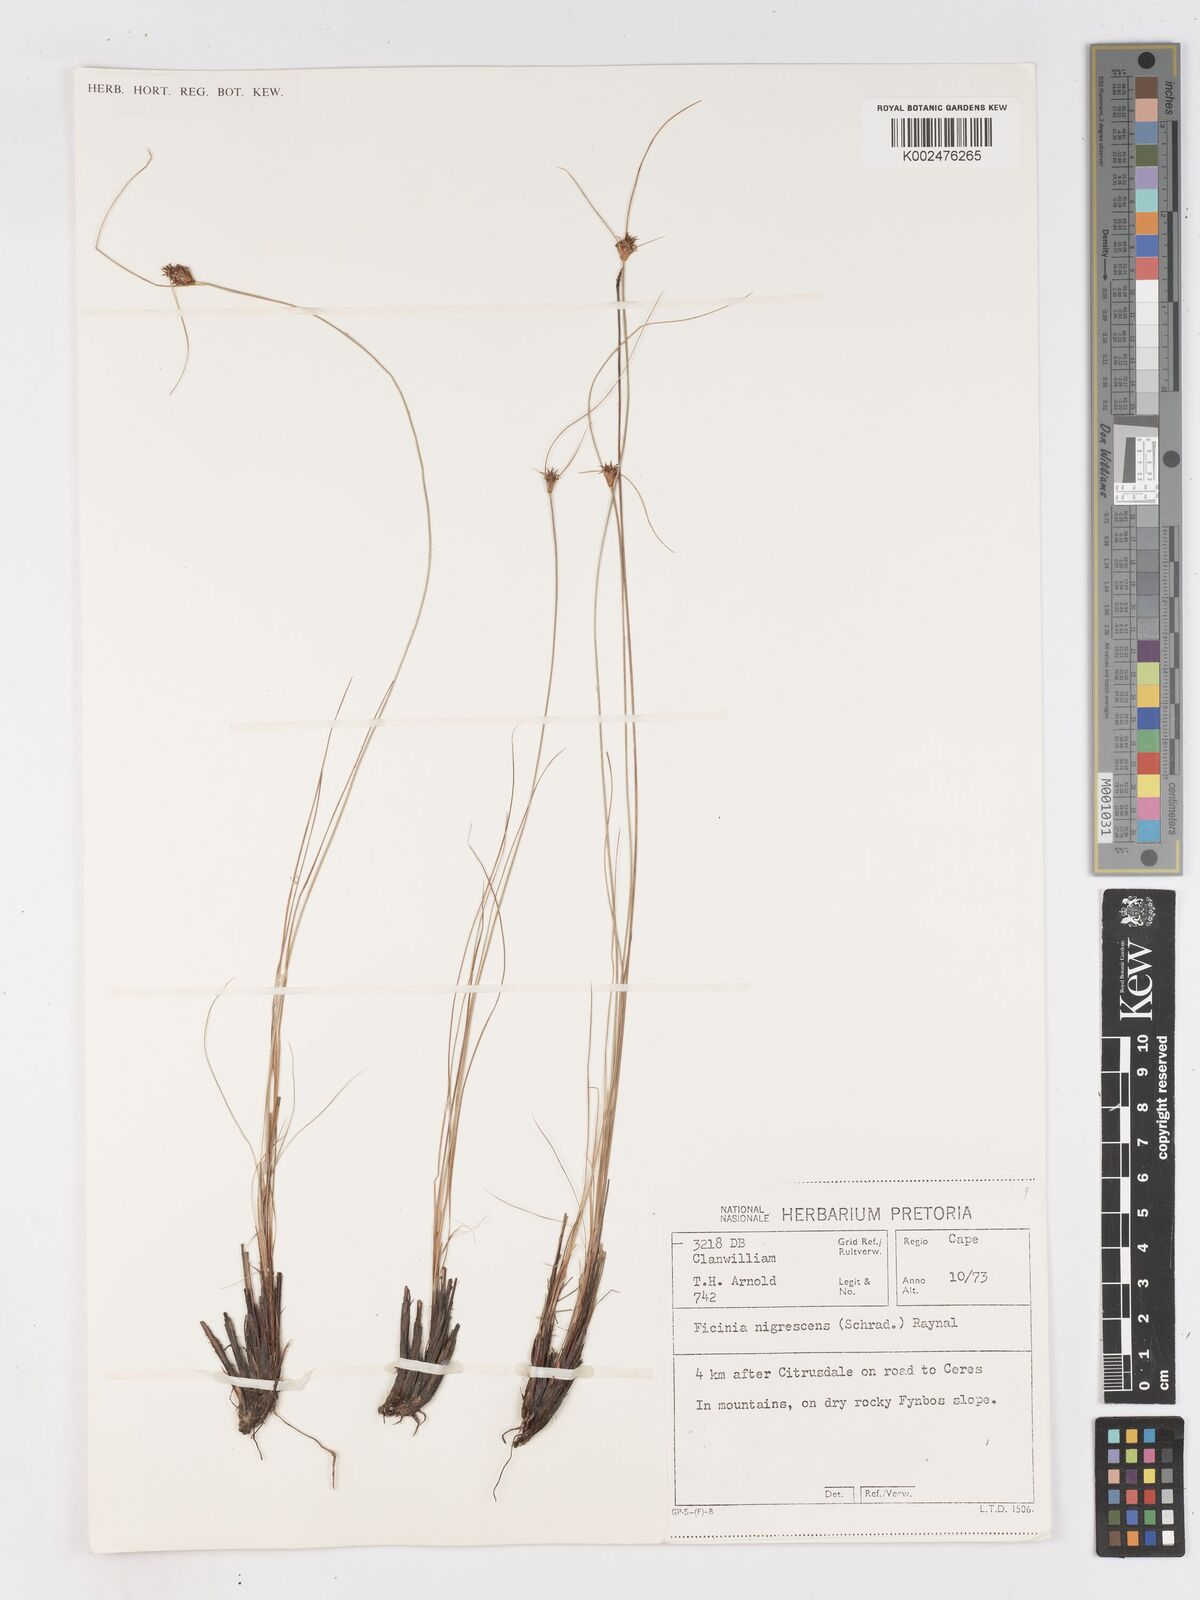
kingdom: Plantae
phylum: Tracheophyta
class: Liliopsida
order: Poales
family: Cyperaceae
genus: Ficinia
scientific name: Ficinia nigrescens
